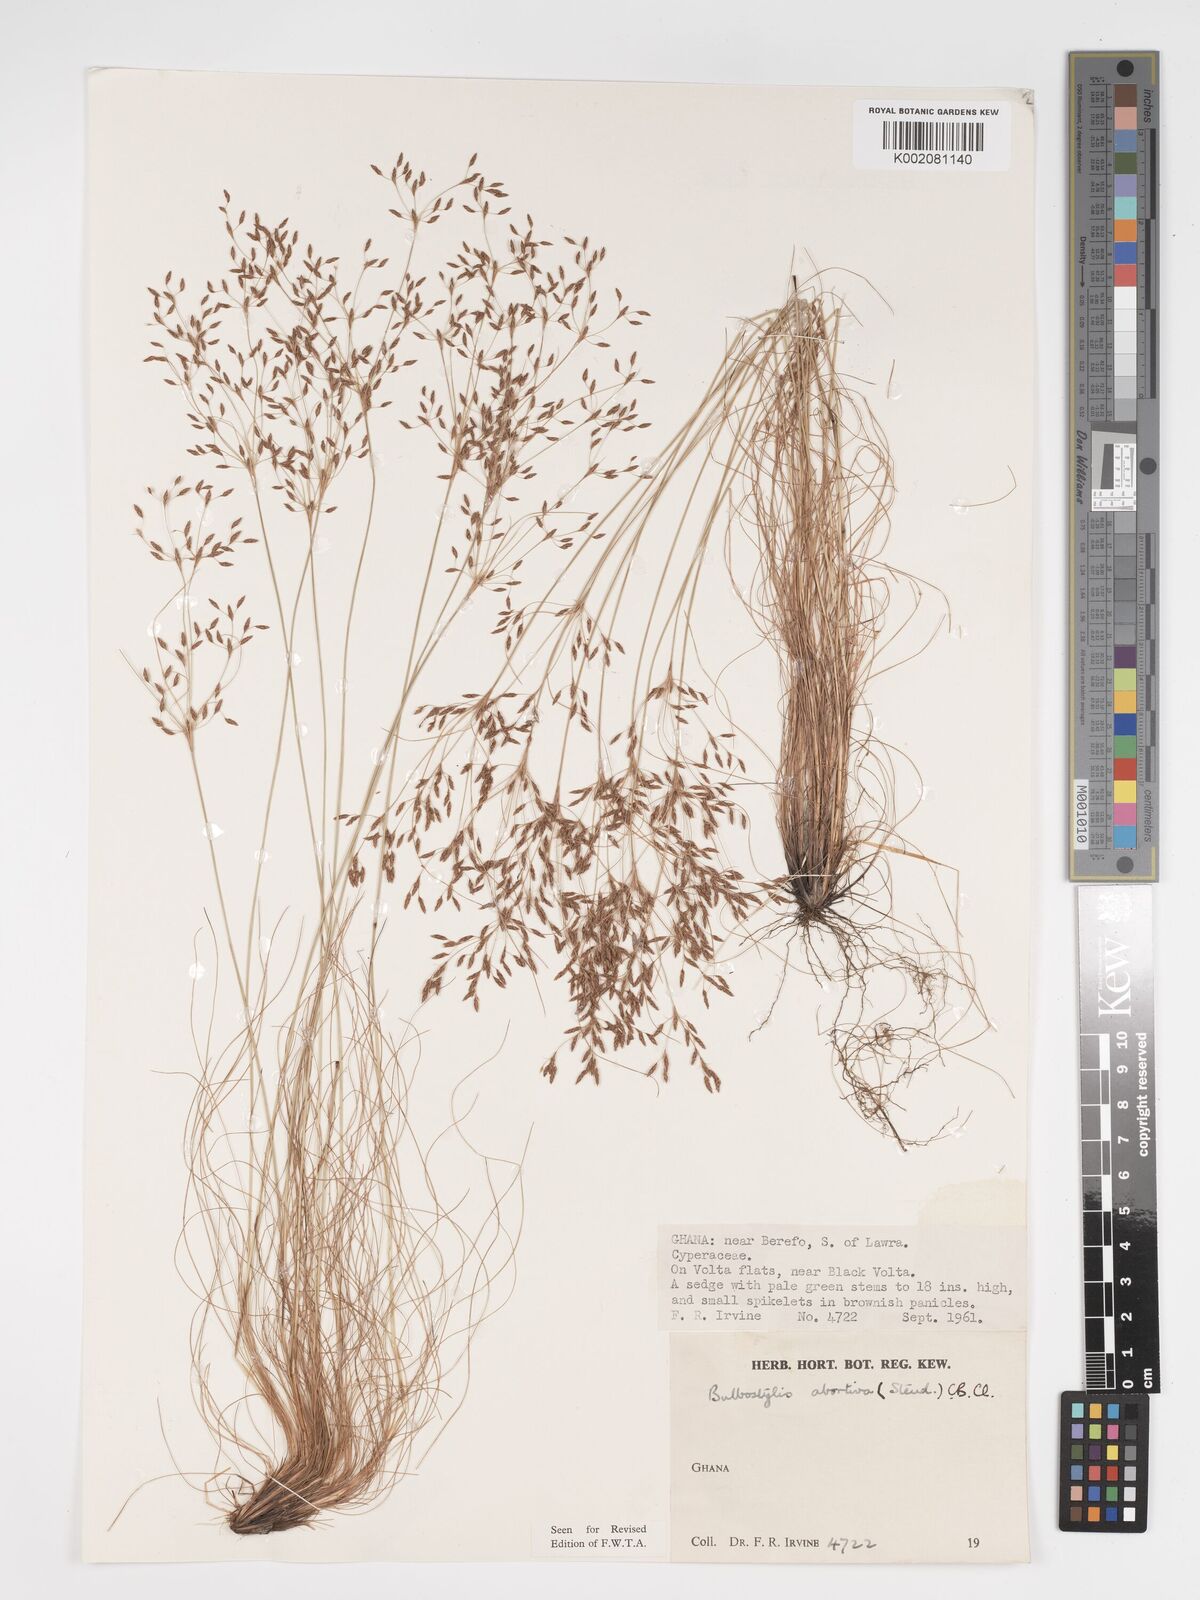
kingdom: Plantae
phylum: Tracheophyta
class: Liliopsida
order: Poales
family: Cyperaceae
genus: Bulbostylis
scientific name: Bulbostylis abortiva
